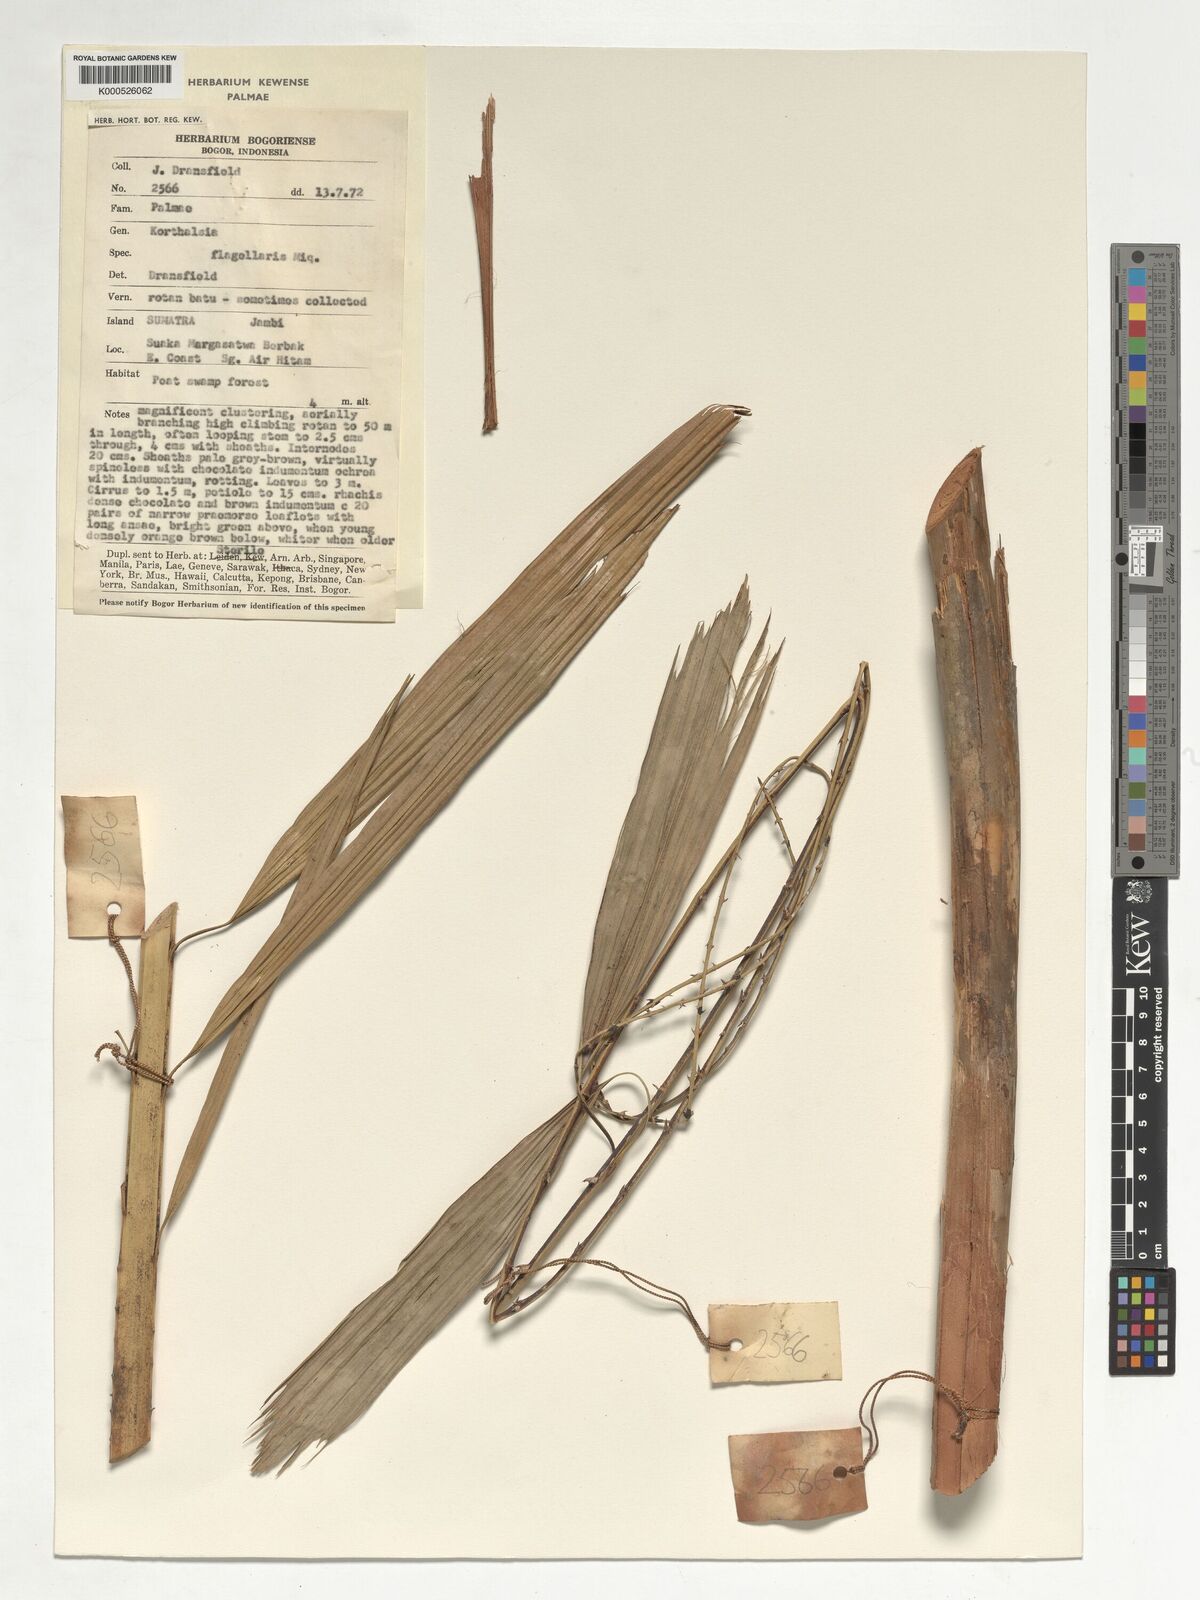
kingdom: Plantae
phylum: Tracheophyta
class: Liliopsida
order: Arecales
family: Arecaceae
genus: Korthalsia
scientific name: Korthalsia flagellaris
